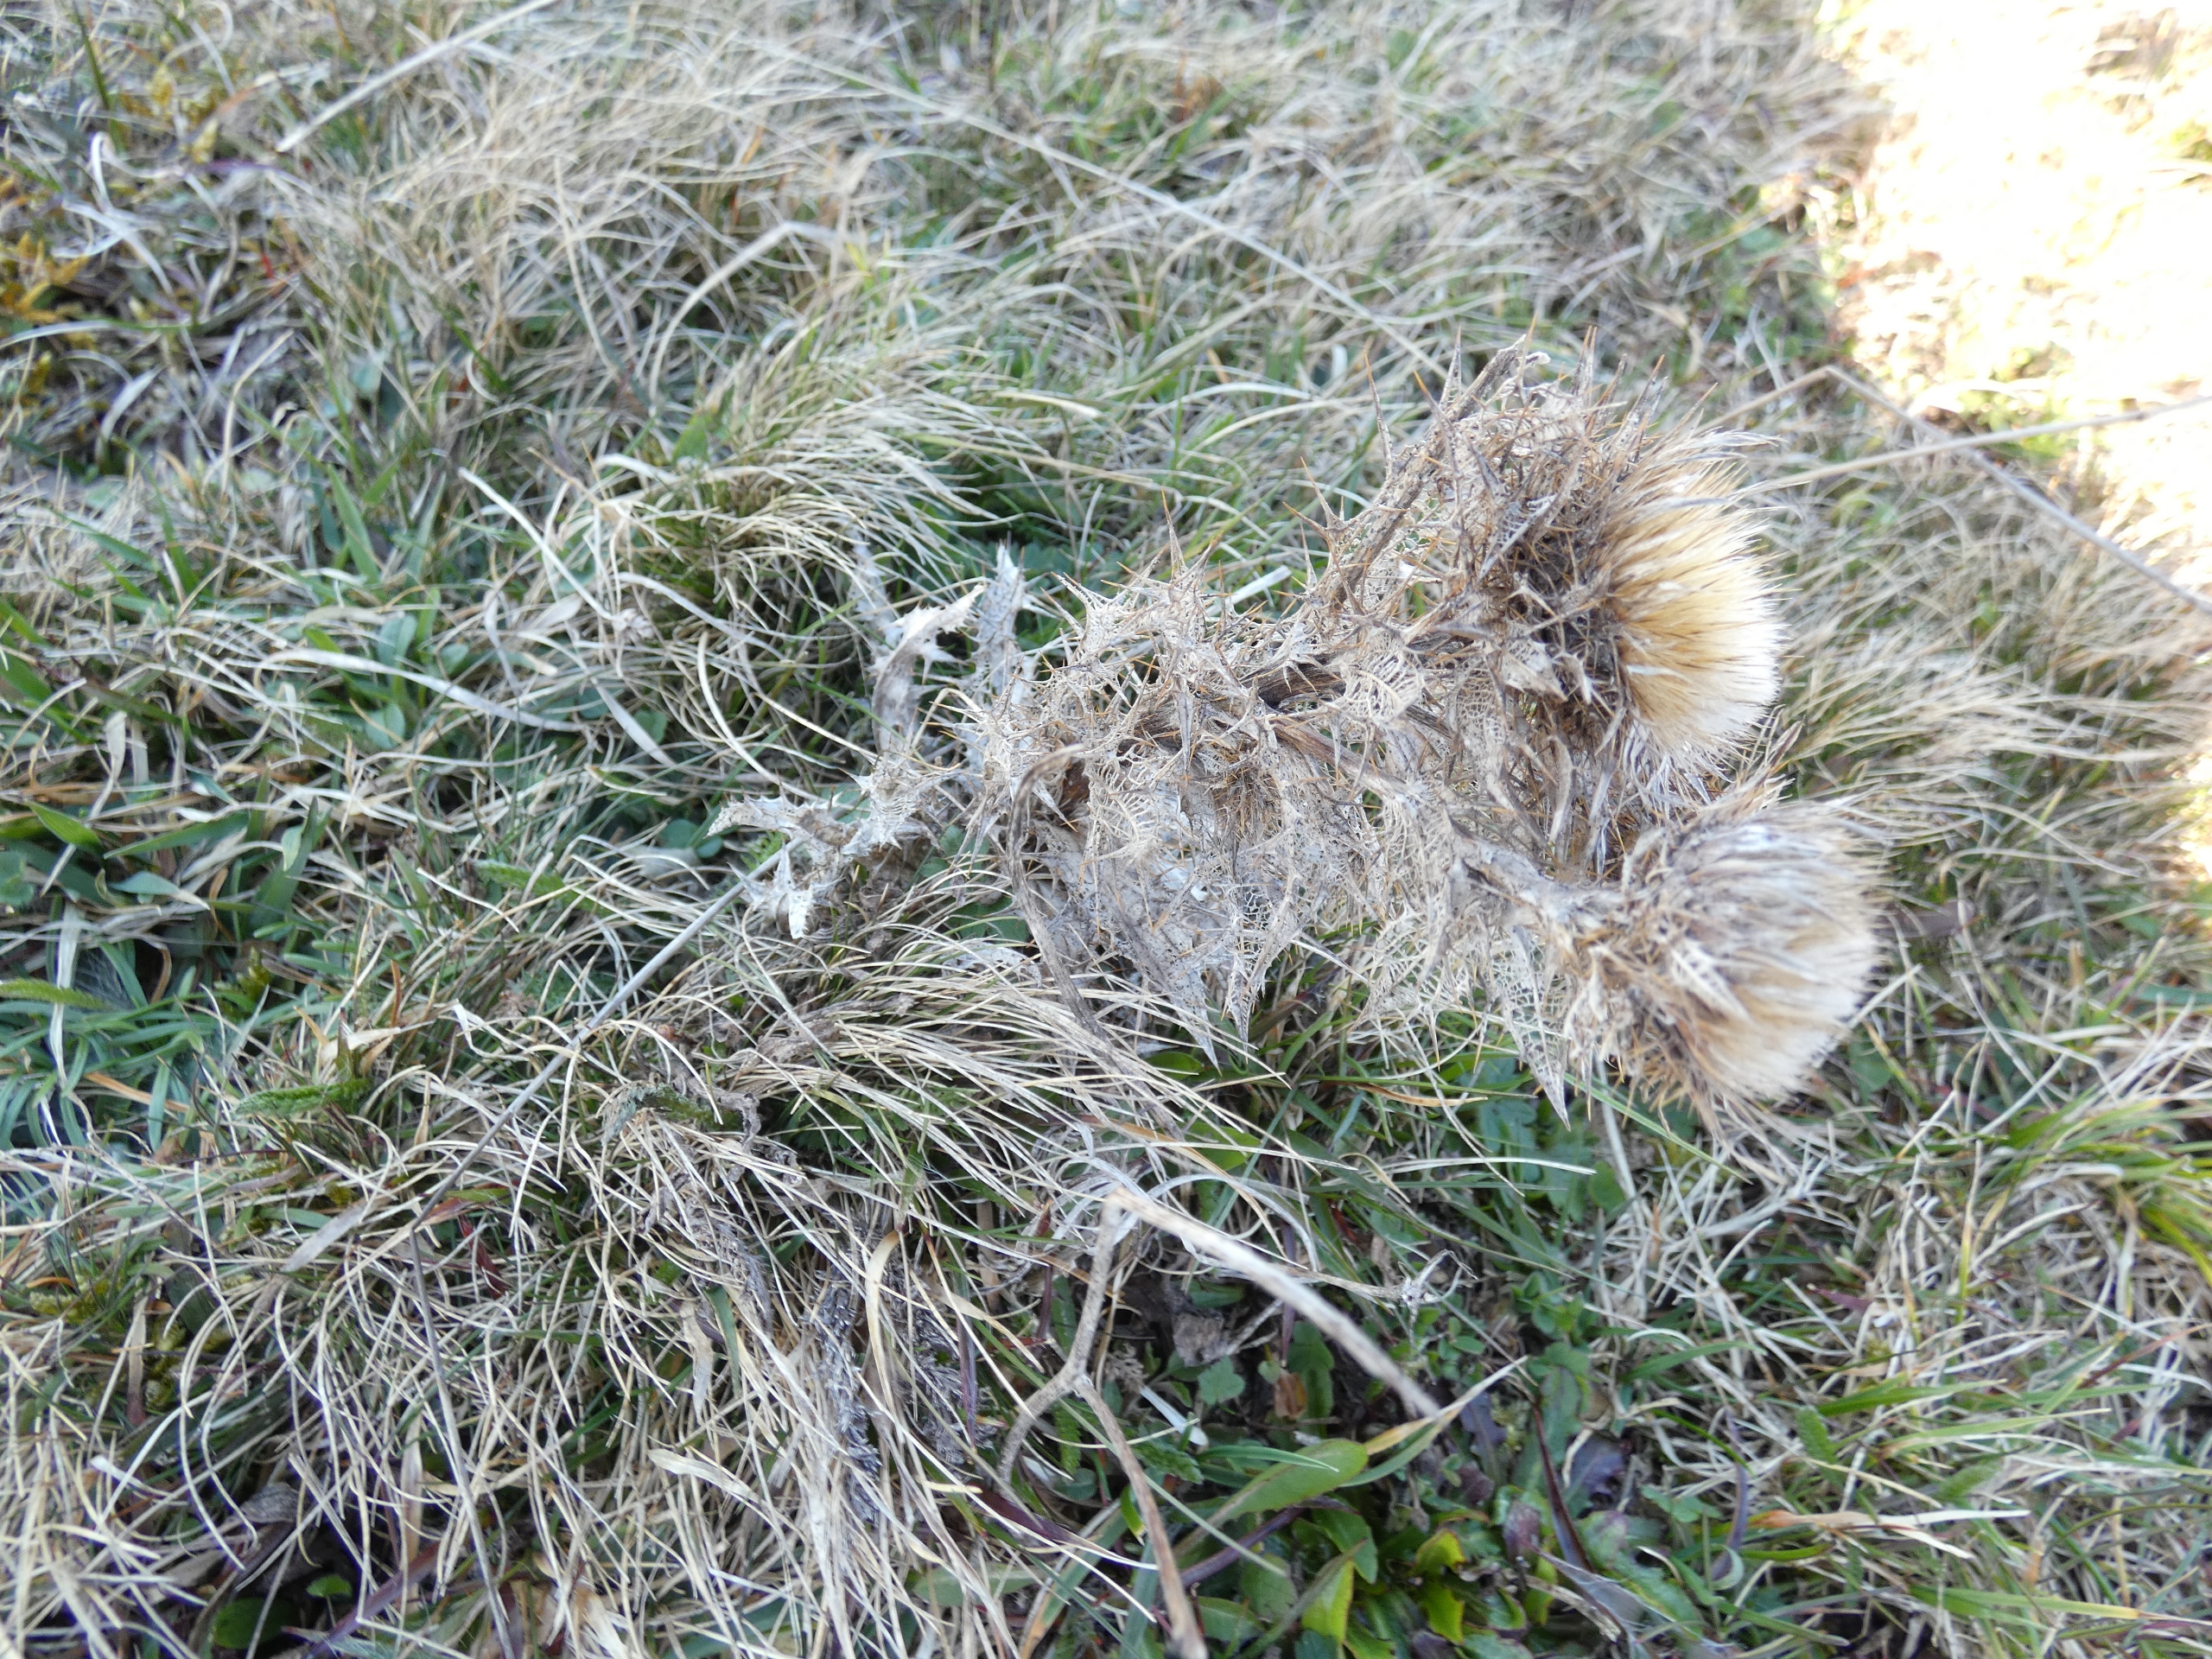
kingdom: Plantae
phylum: Tracheophyta
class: Magnoliopsida
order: Asterales
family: Asteraceae
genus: Carlina
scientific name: Carlina vulgaris
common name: Bakketidsel
